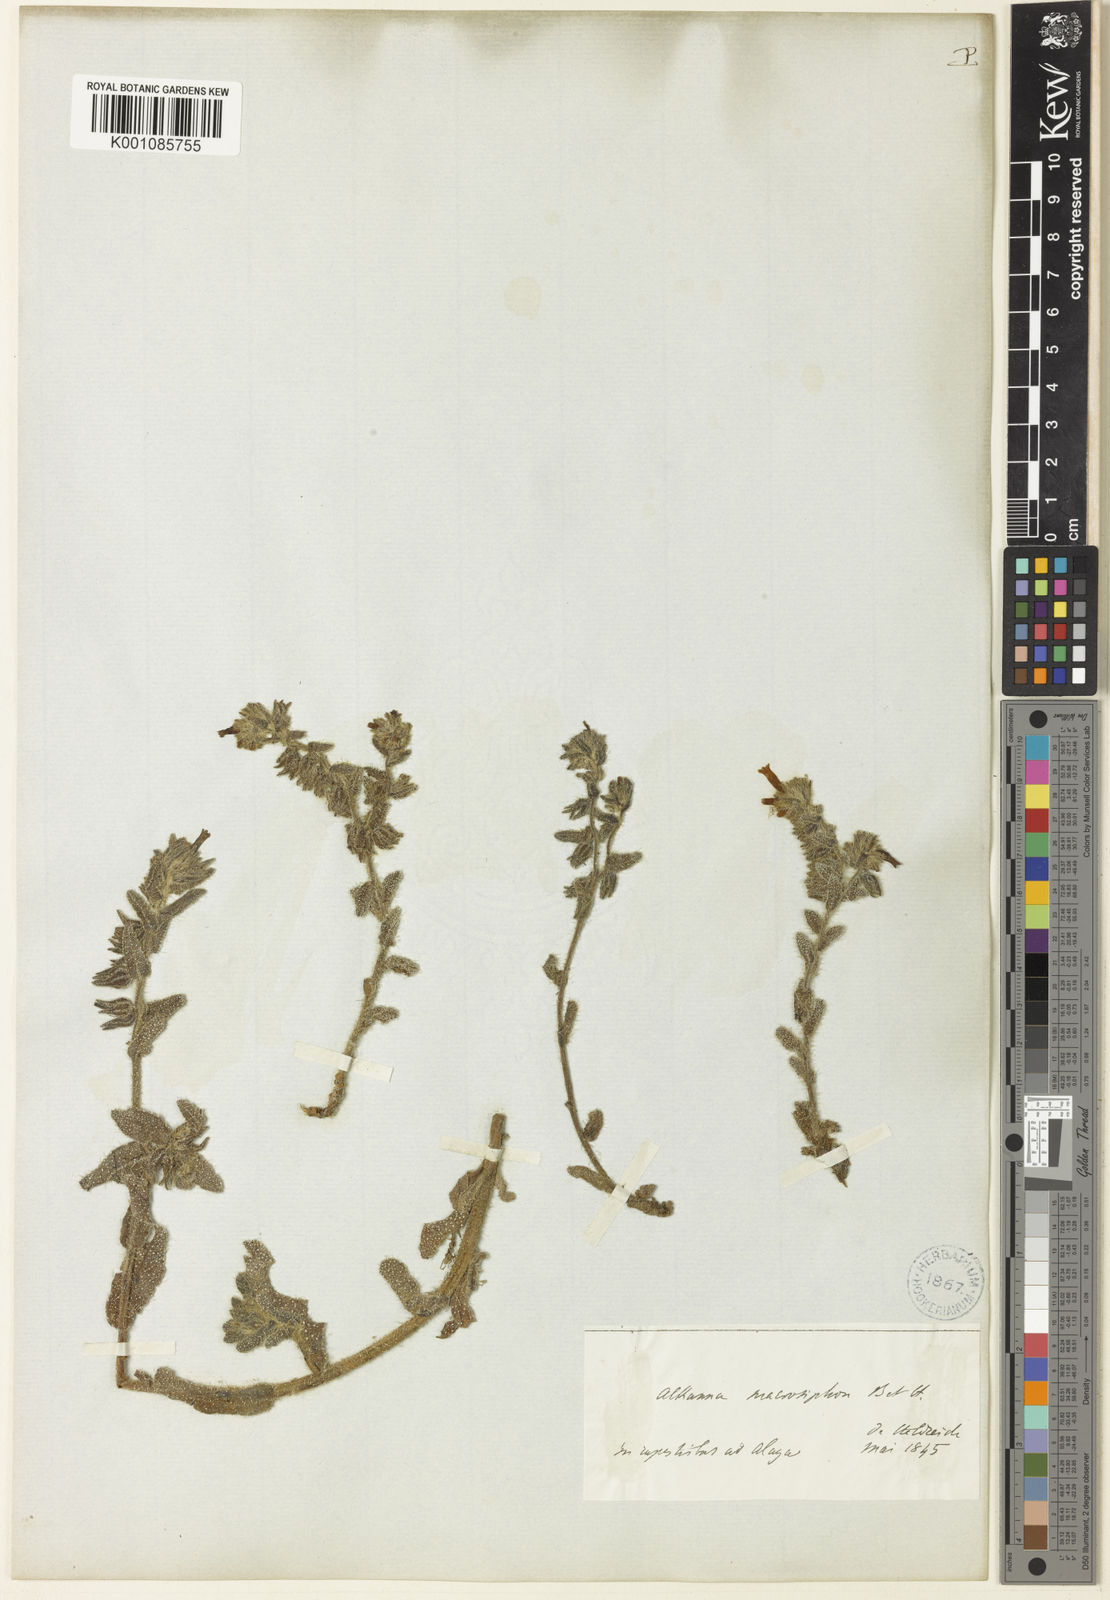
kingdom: Plantae
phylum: Tracheophyta
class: Magnoliopsida
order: Boraginales
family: Boraginaceae
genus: Alkanna
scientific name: Alkanna macrosiphon
